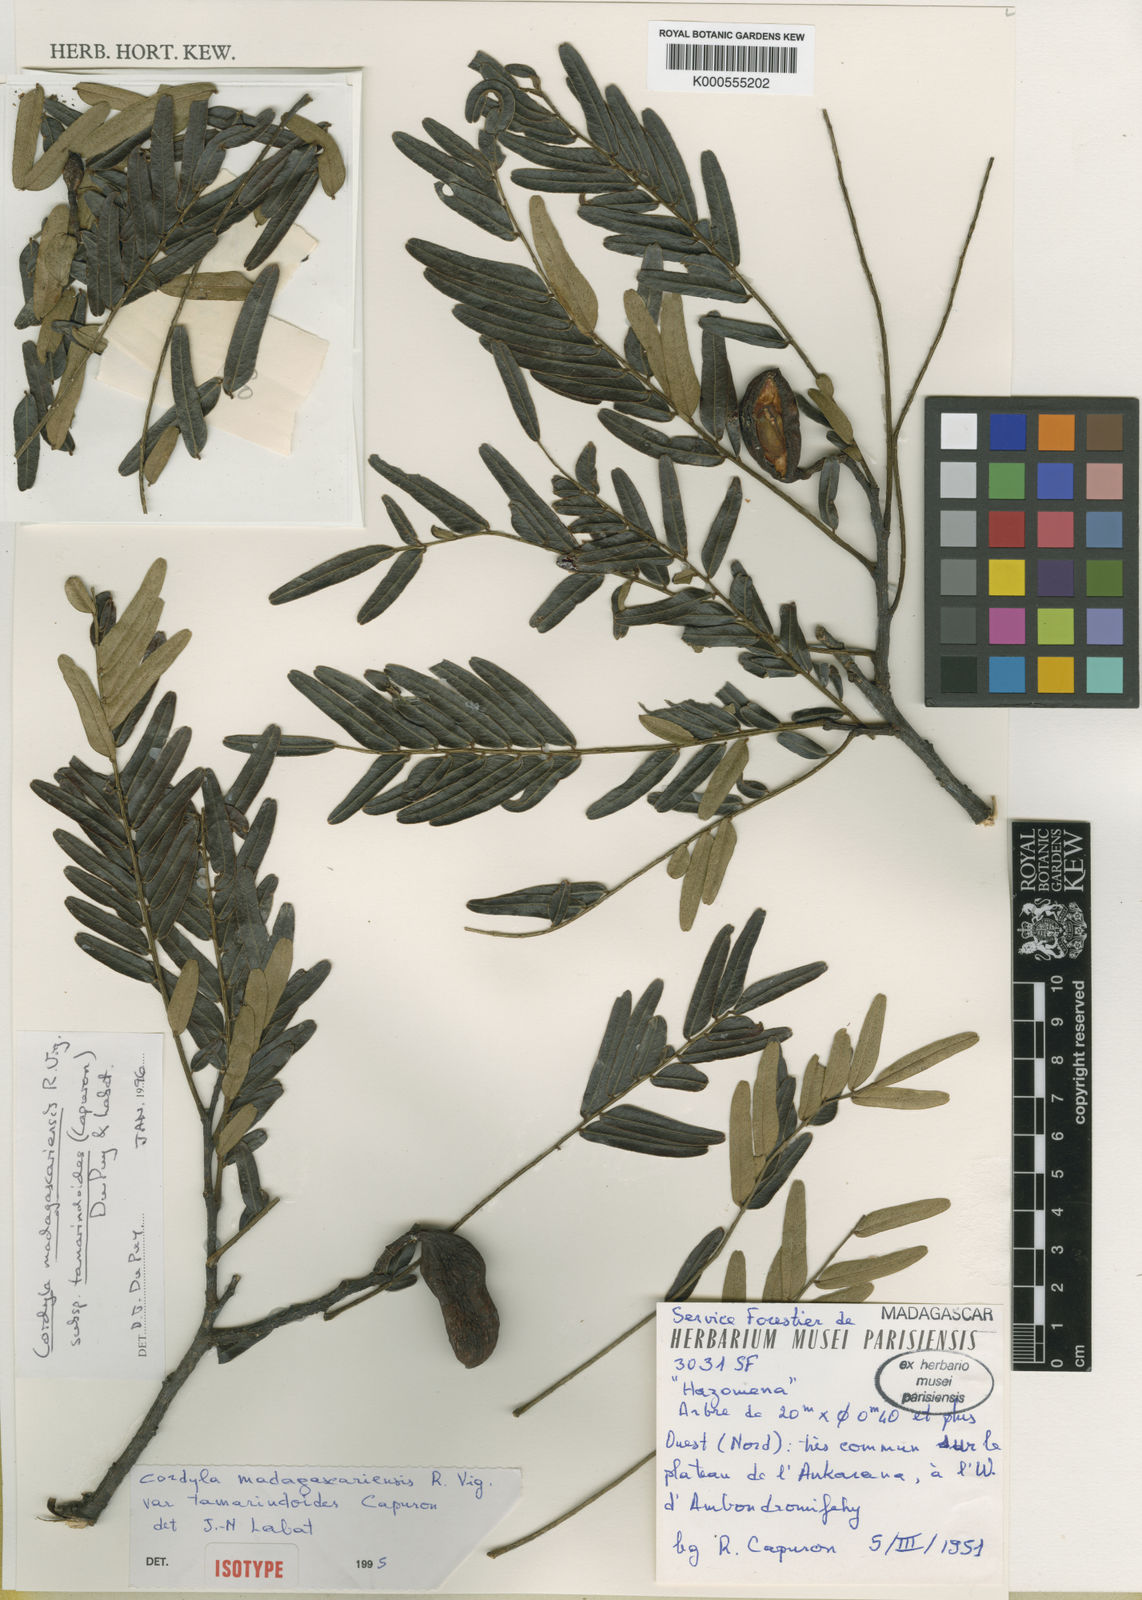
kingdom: Plantae
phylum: Tracheophyta
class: Magnoliopsida
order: Fabales
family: Fabaceae
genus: Cordyla
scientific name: Cordyla madagascariensis
